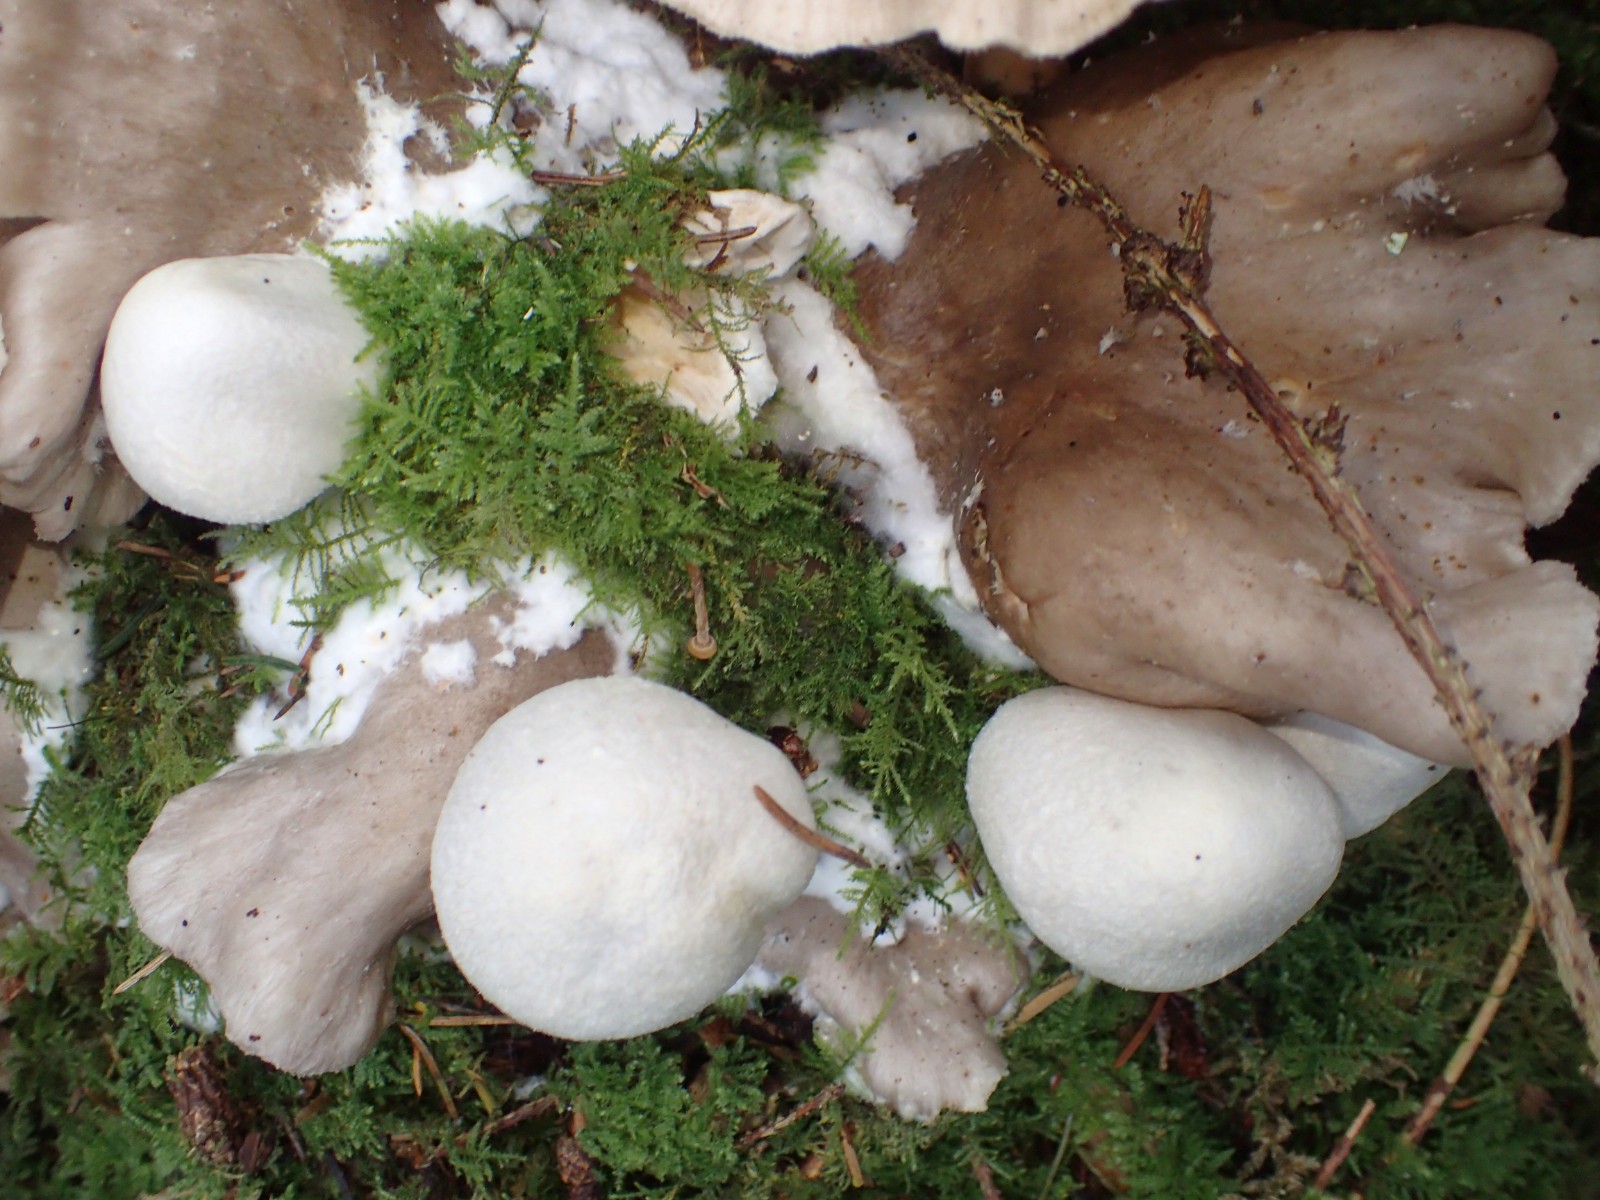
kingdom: Fungi
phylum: Basidiomycota
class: Agaricomycetes
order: Agaricales
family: Pluteaceae
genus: Volvariella
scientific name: Volvariella surrecta
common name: snyltende posesvamp
